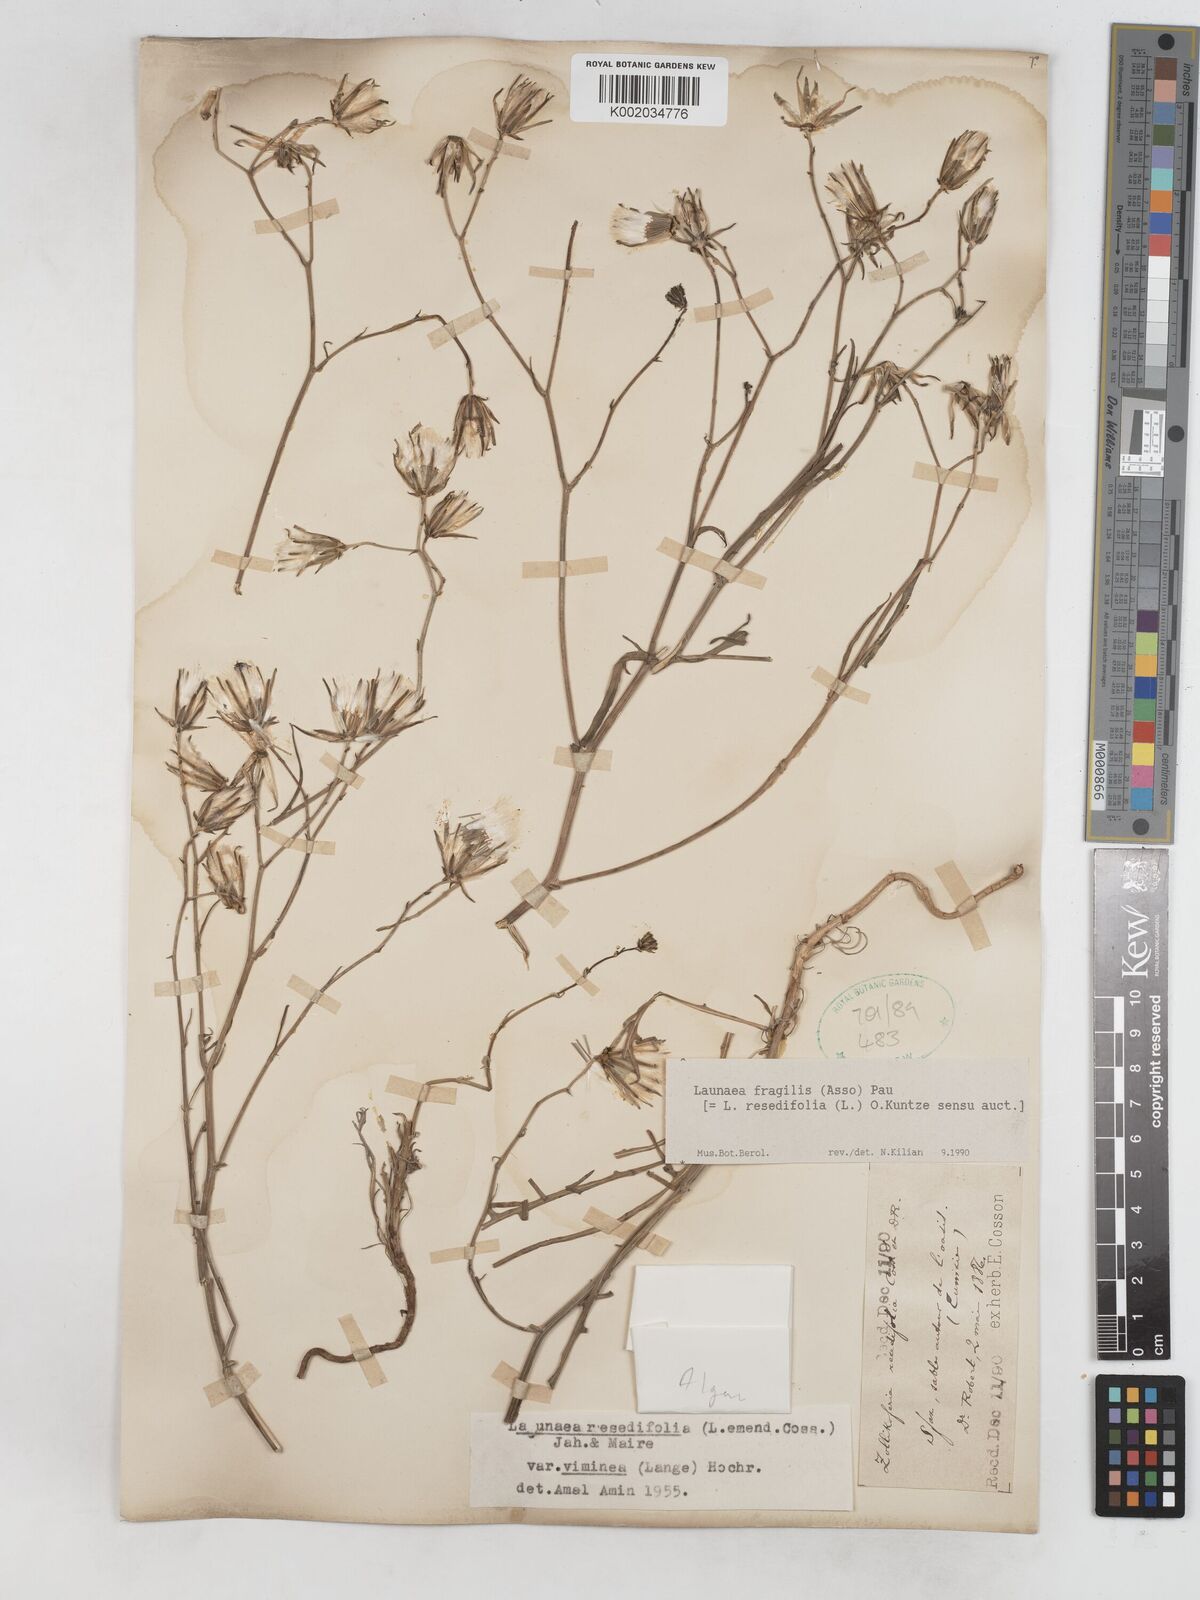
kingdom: Plantae
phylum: Tracheophyta
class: Magnoliopsida
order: Asterales
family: Asteraceae
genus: Launaea
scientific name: Launaea fragilis
